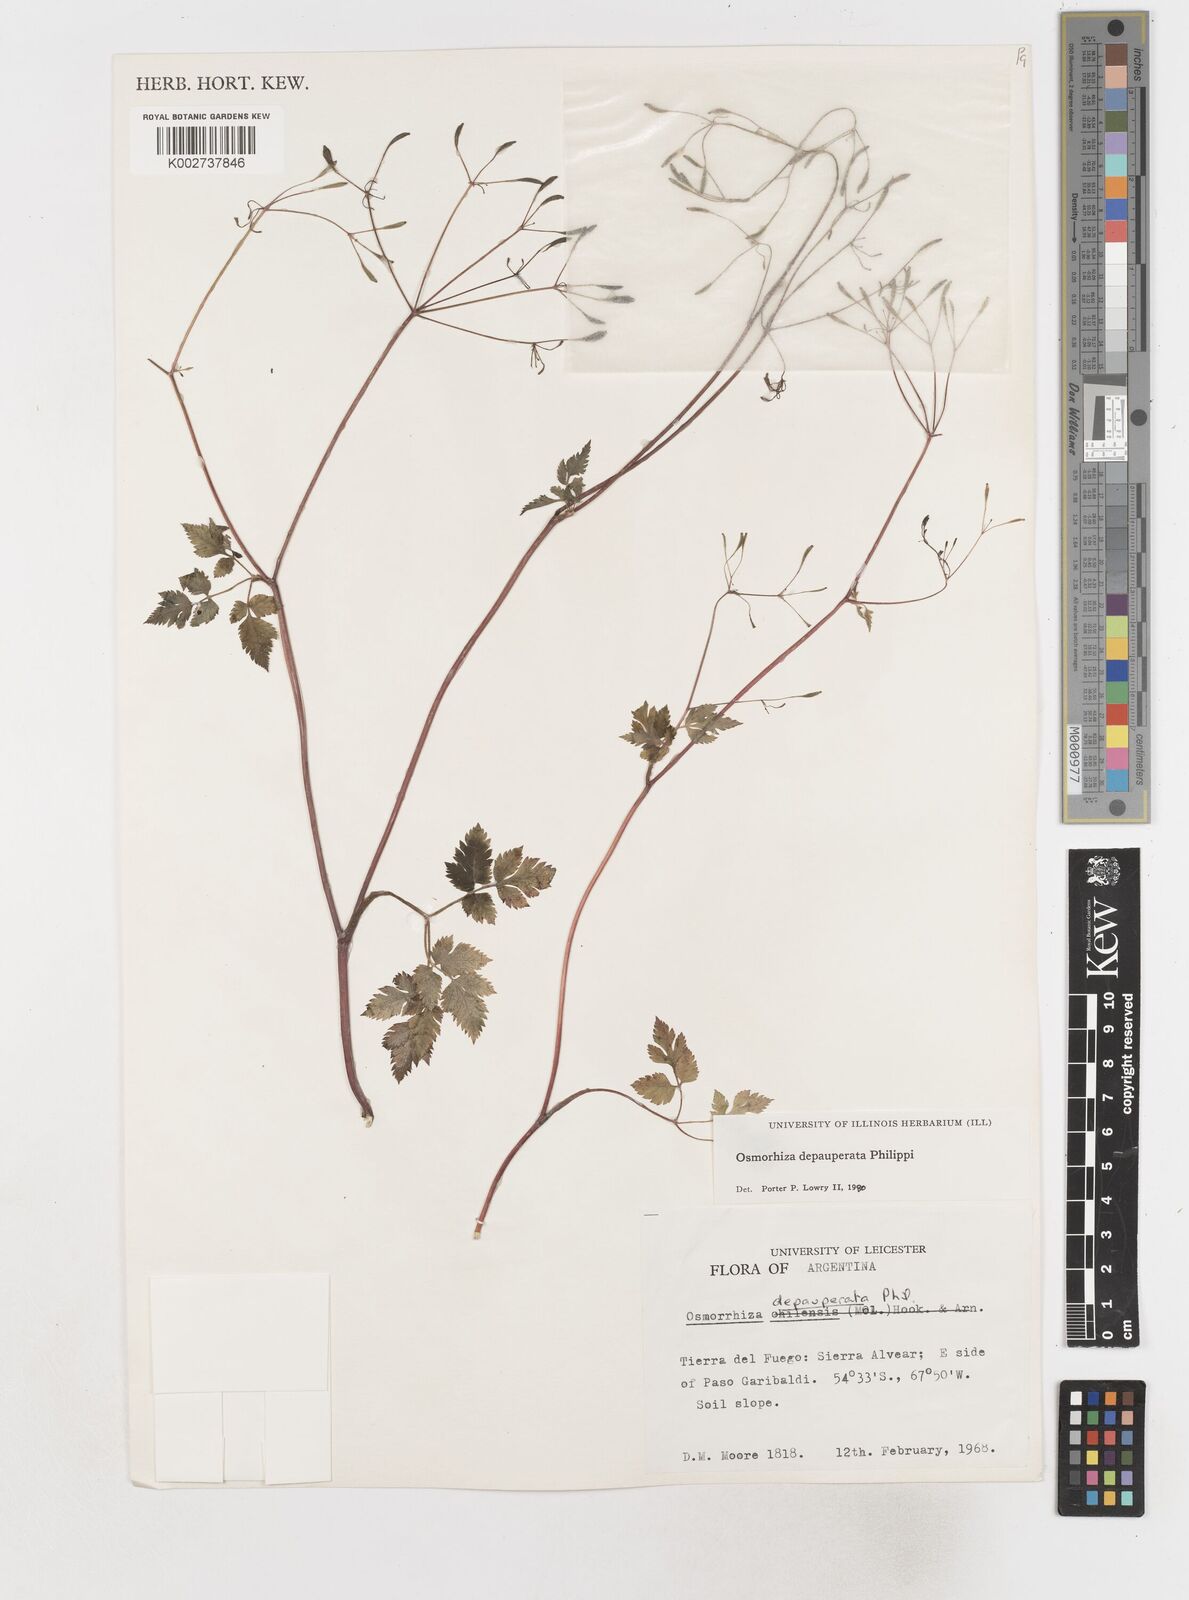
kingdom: Plantae
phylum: Tracheophyta
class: Magnoliopsida
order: Apiales
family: Apiaceae
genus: Osmorhiza
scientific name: Osmorhiza depauperata
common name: Blunt sweet cicely
